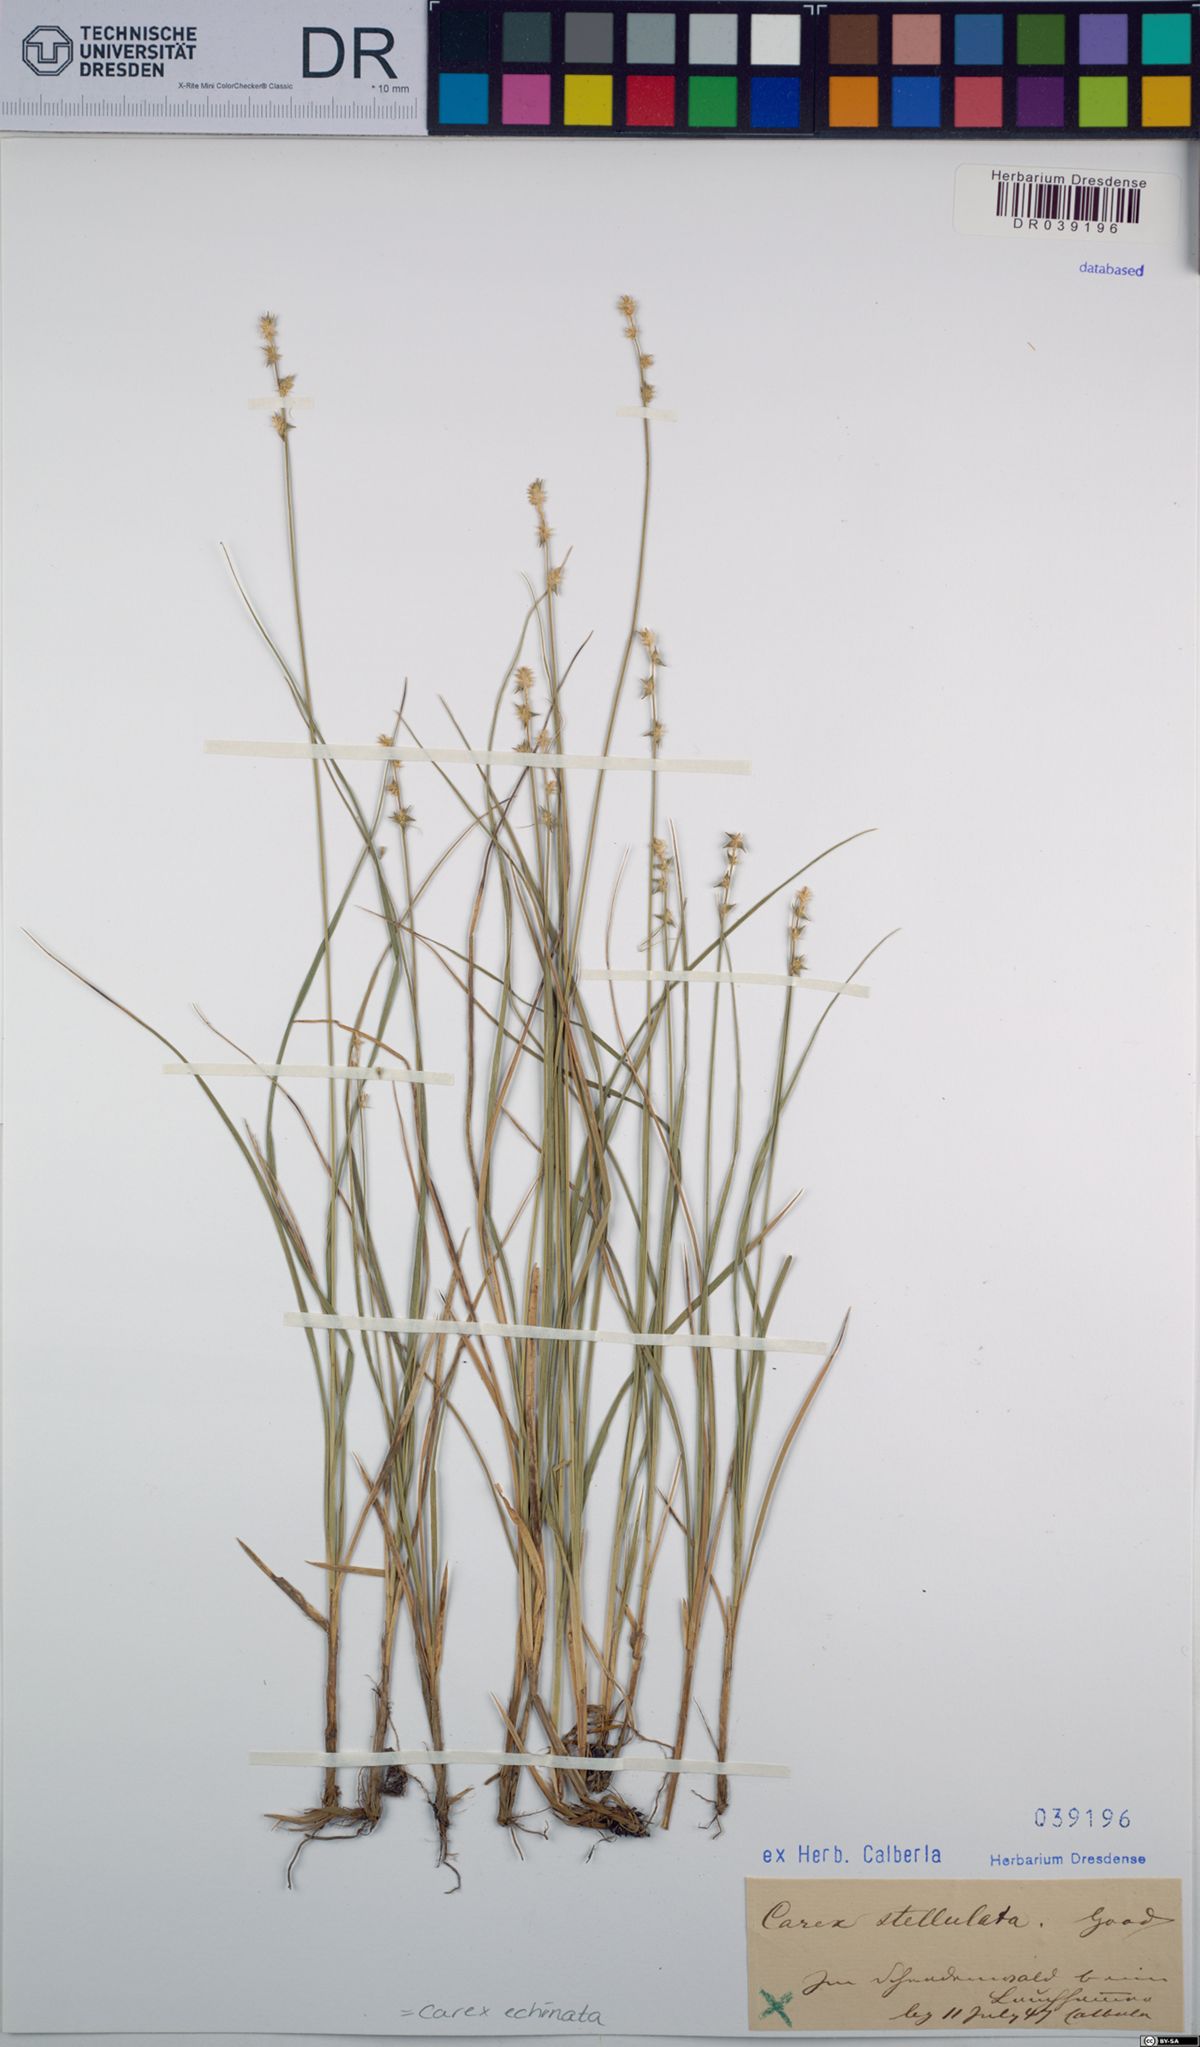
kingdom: Plantae
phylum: Tracheophyta
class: Liliopsida
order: Poales
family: Cyperaceae
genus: Carex
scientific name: Carex echinata
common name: Star sedge
